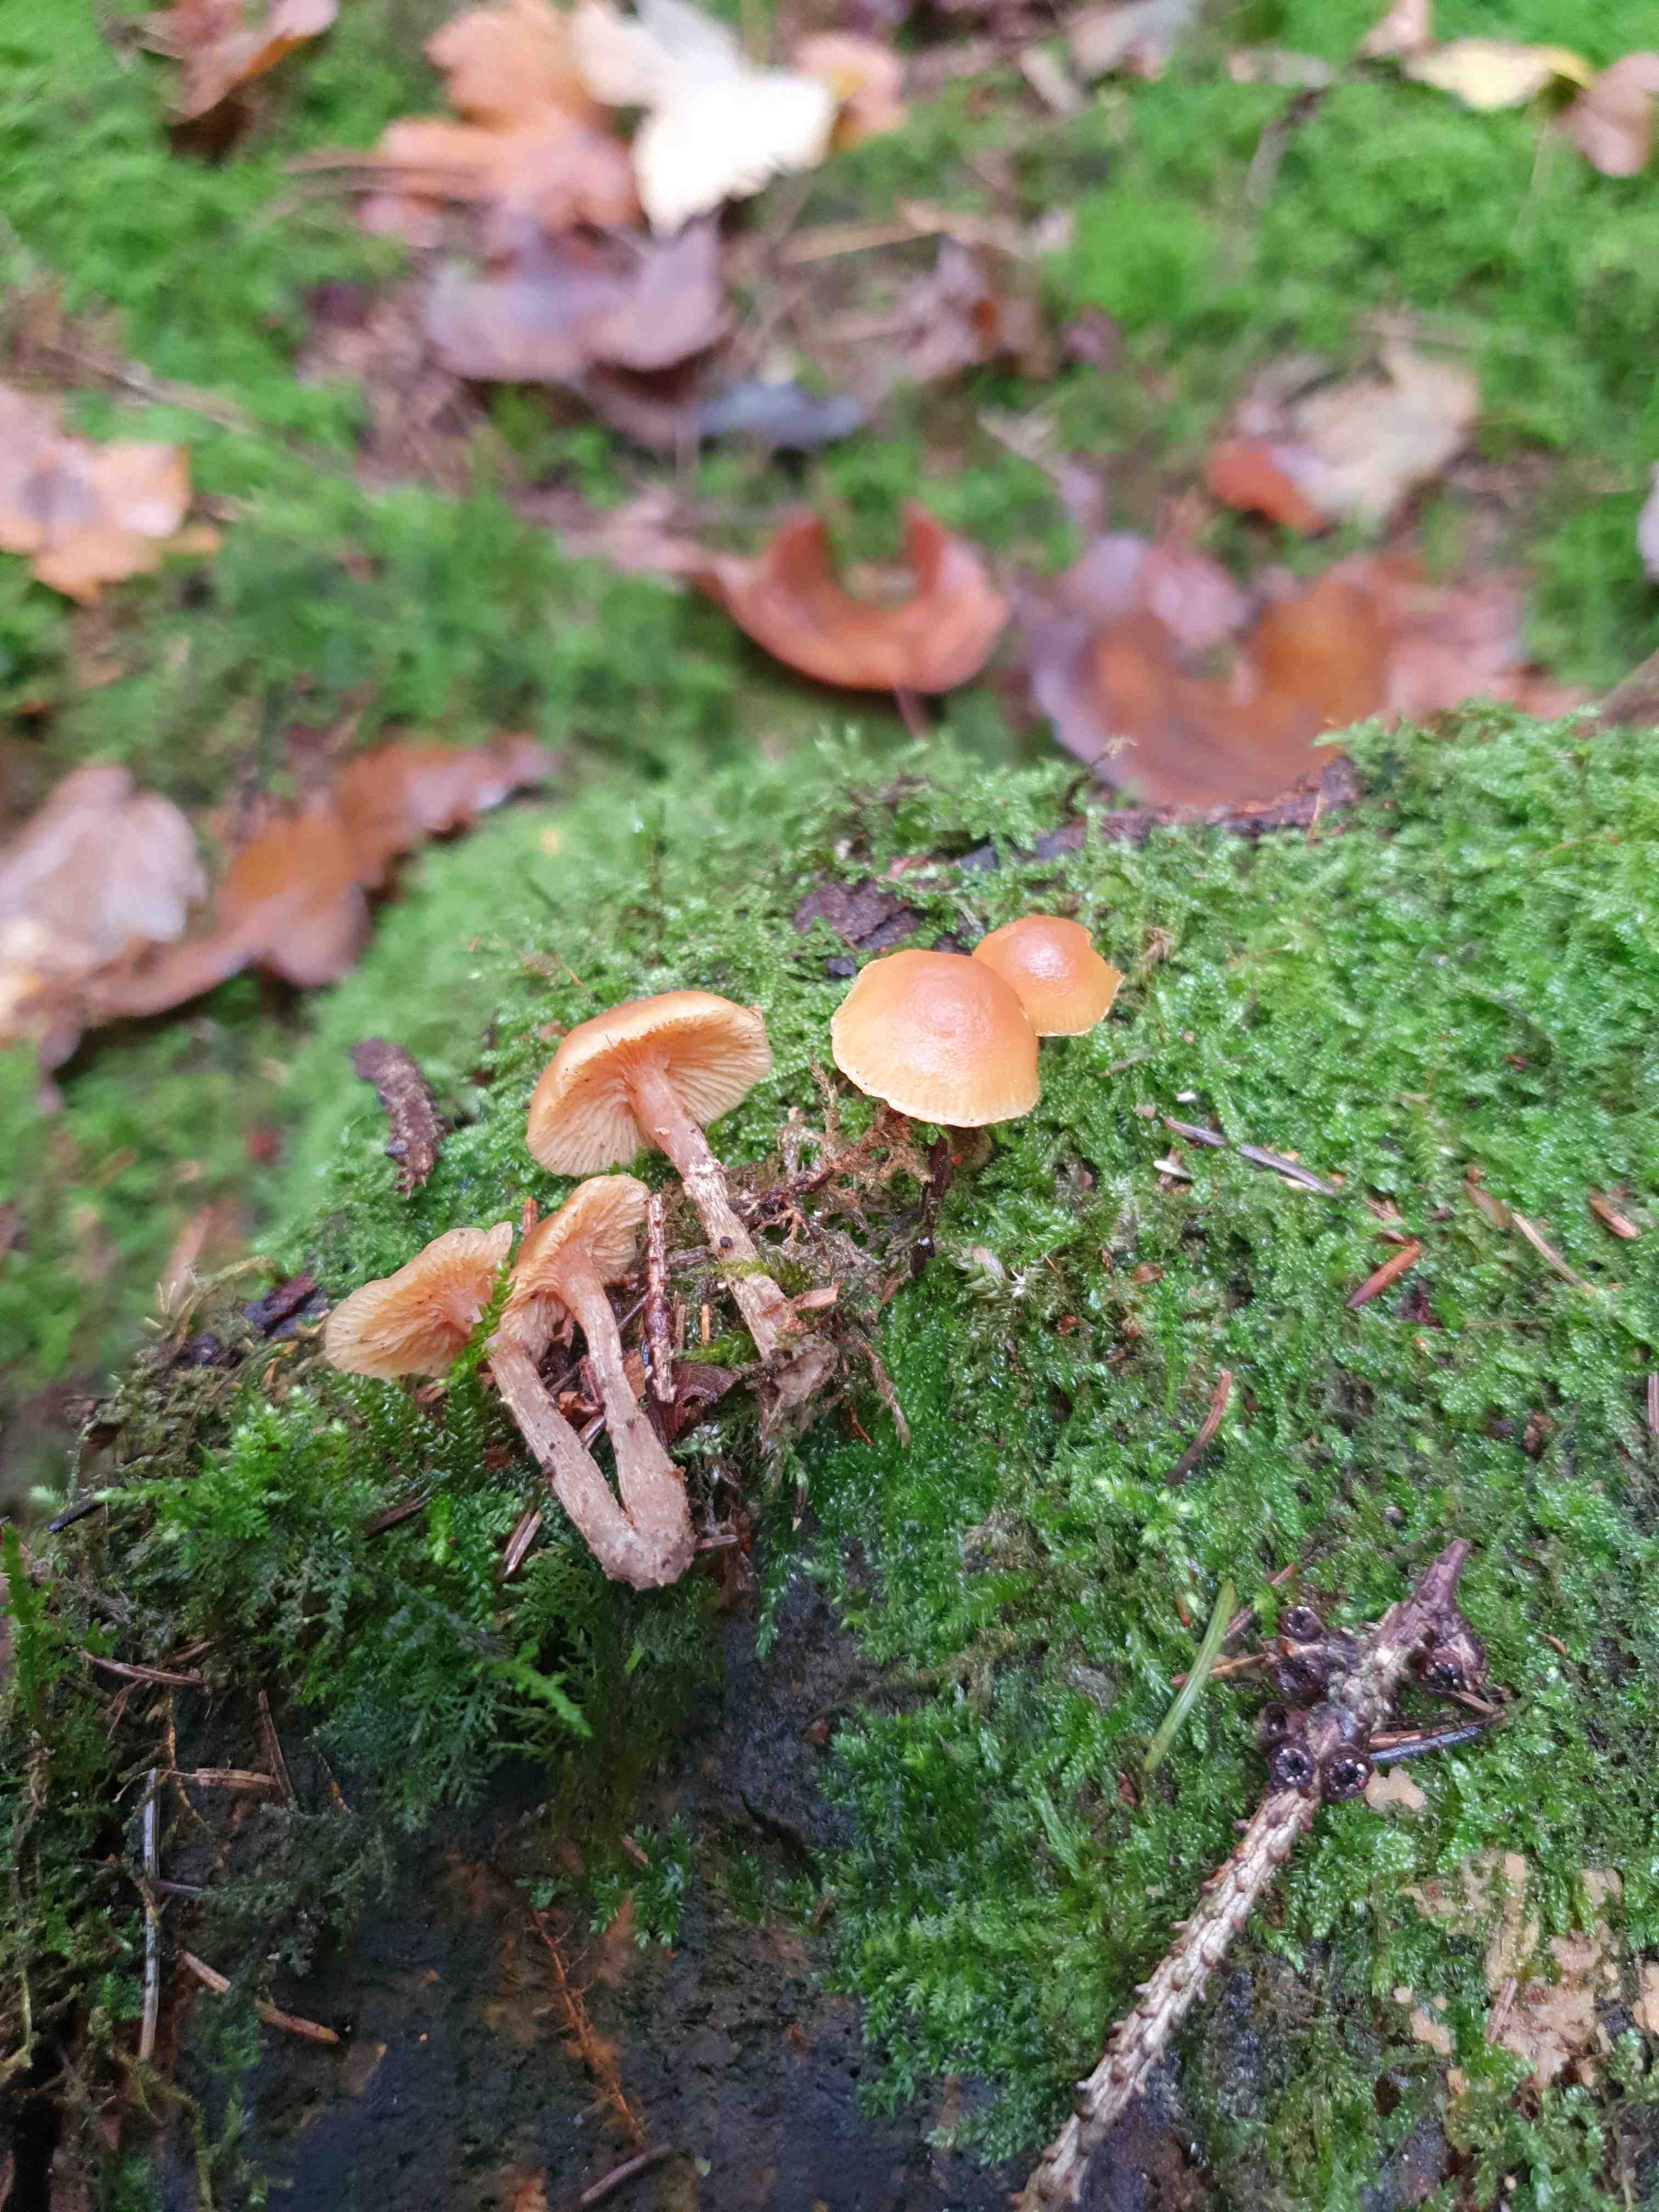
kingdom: Fungi
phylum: Basidiomycota
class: Agaricomycetes
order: Agaricales
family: Hymenogastraceae
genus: Galerina
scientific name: Galerina marginata
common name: randbæltet hjelmhat
